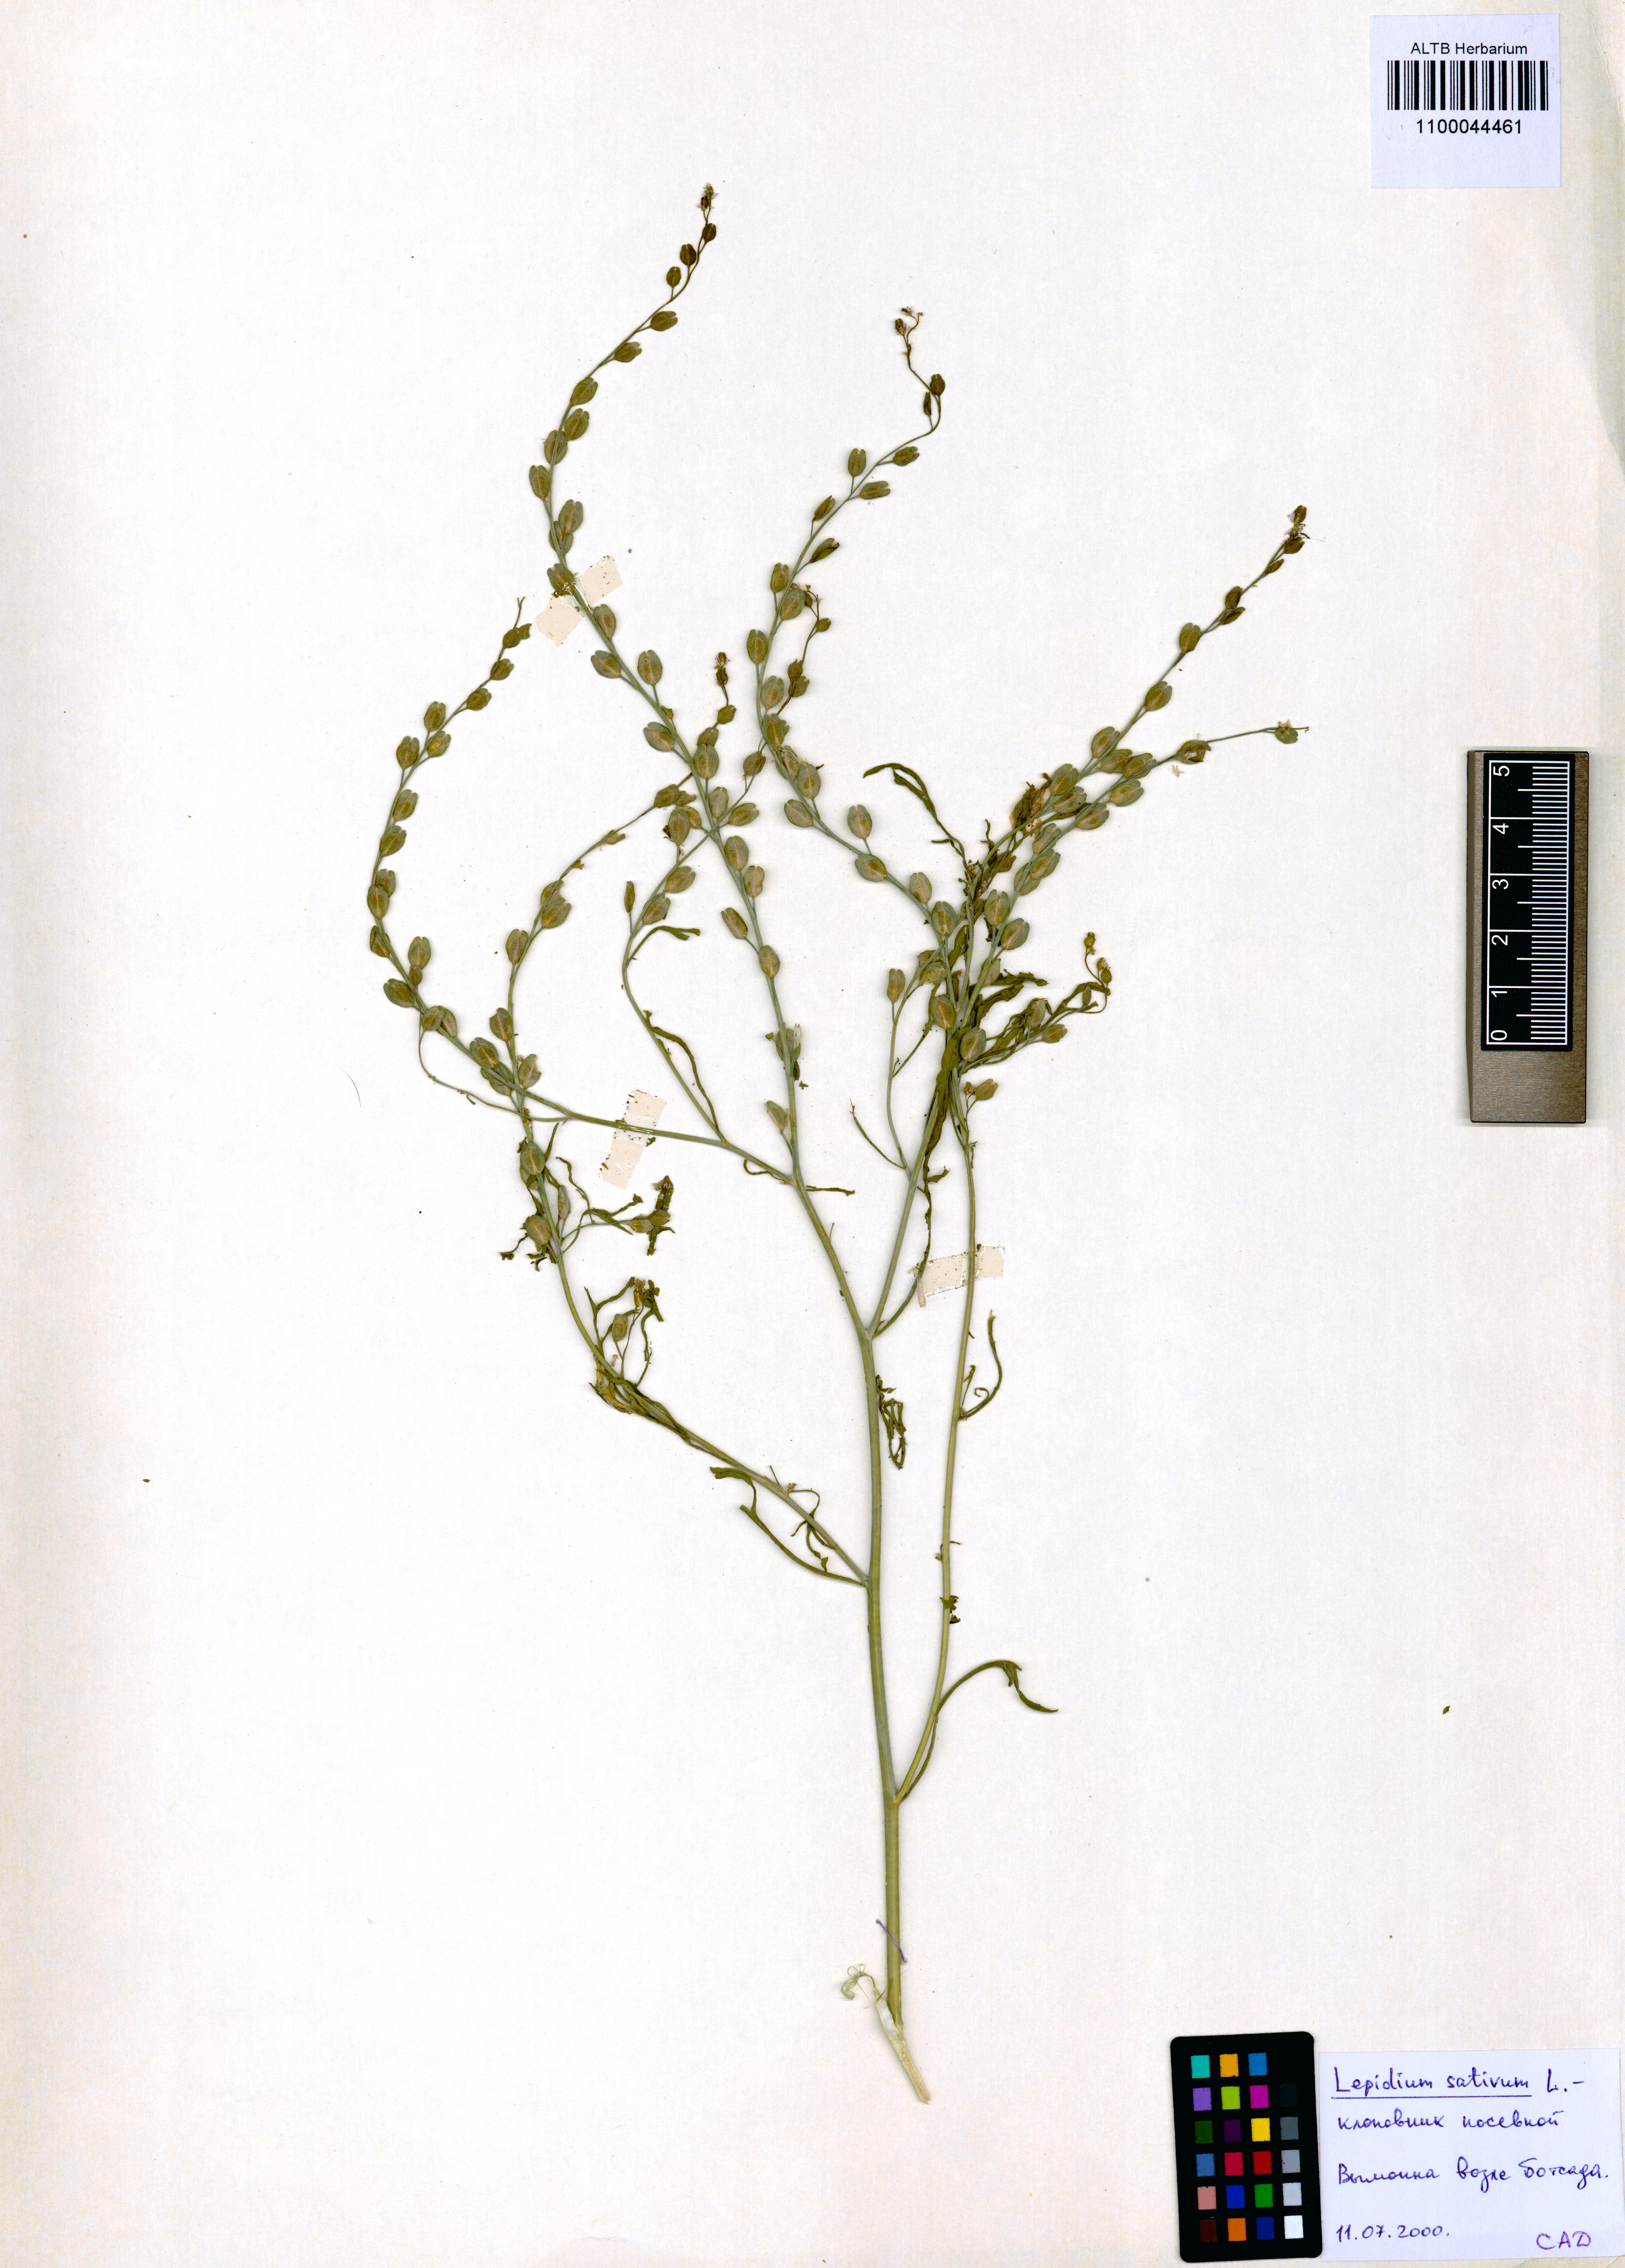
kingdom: Plantae
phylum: Tracheophyta
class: Magnoliopsida
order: Brassicales
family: Brassicaceae
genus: Lepidium
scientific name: Lepidium sativum
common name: Garden cress
